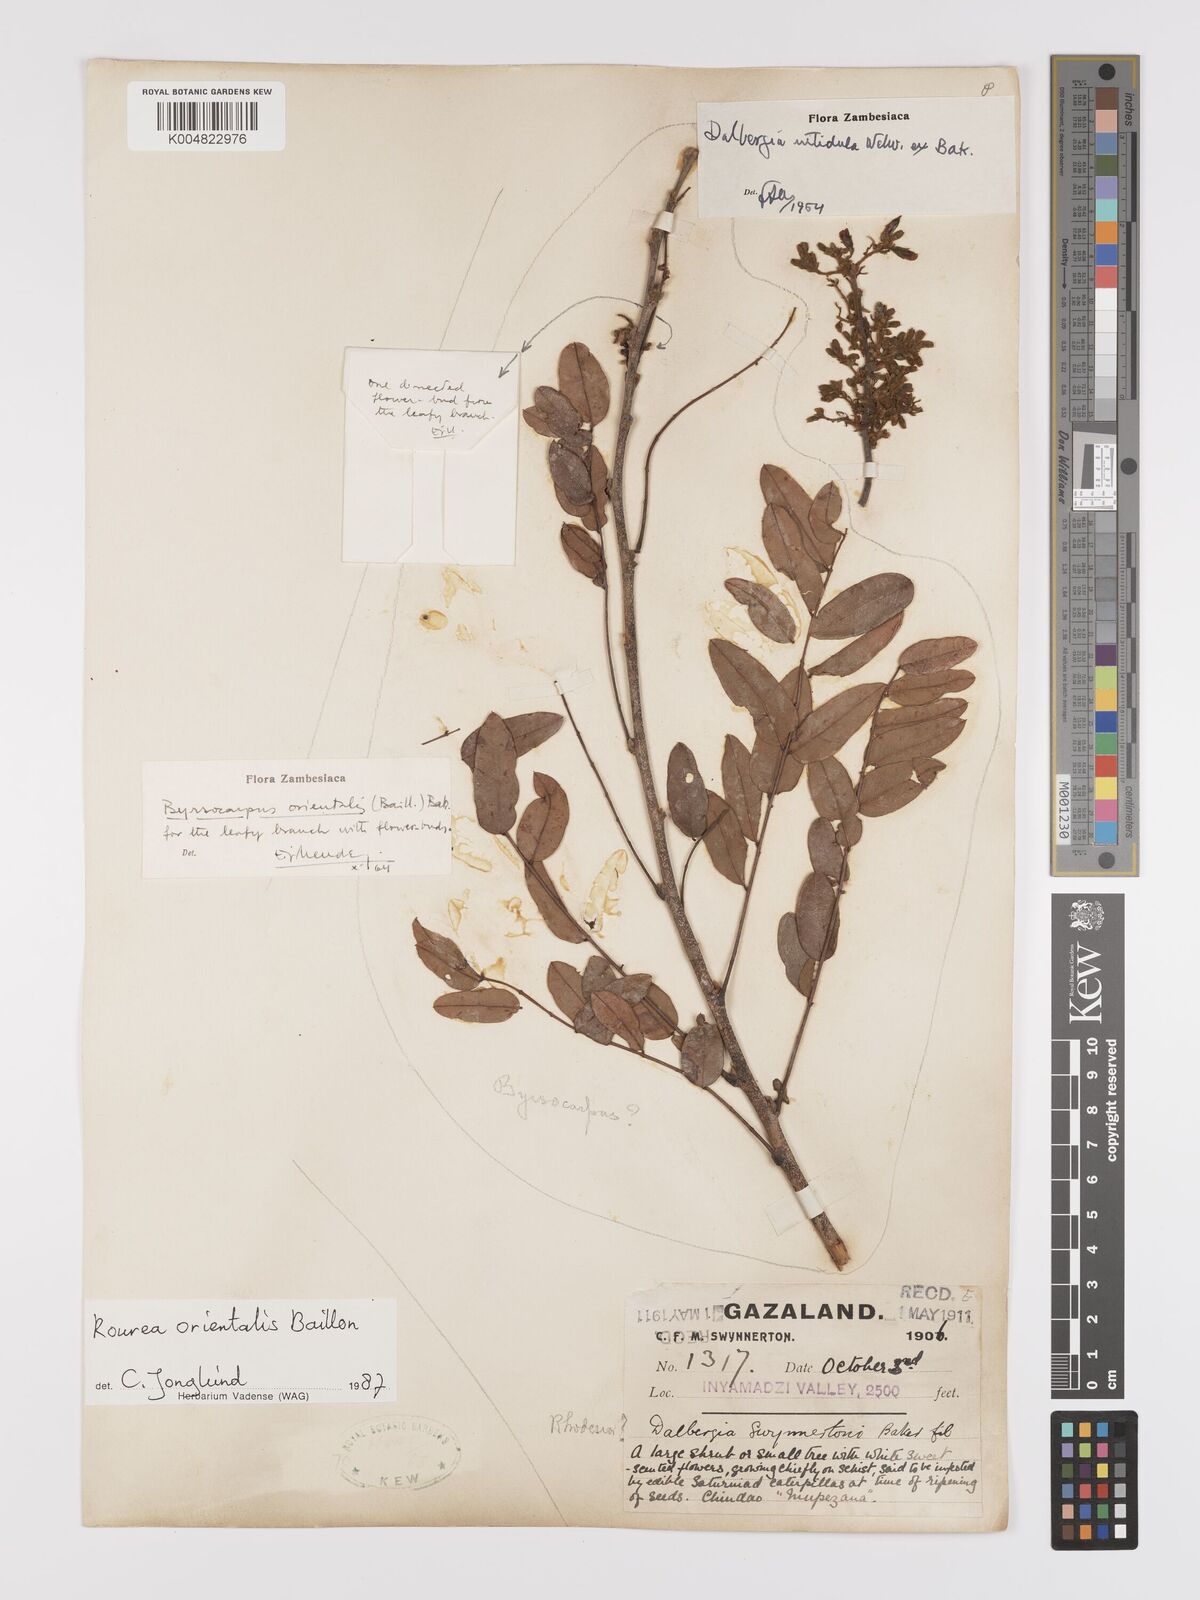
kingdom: Plantae
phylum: Tracheophyta
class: Magnoliopsida
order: Oxalidales
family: Connaraceae
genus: Rourea
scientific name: Rourea orientalis
